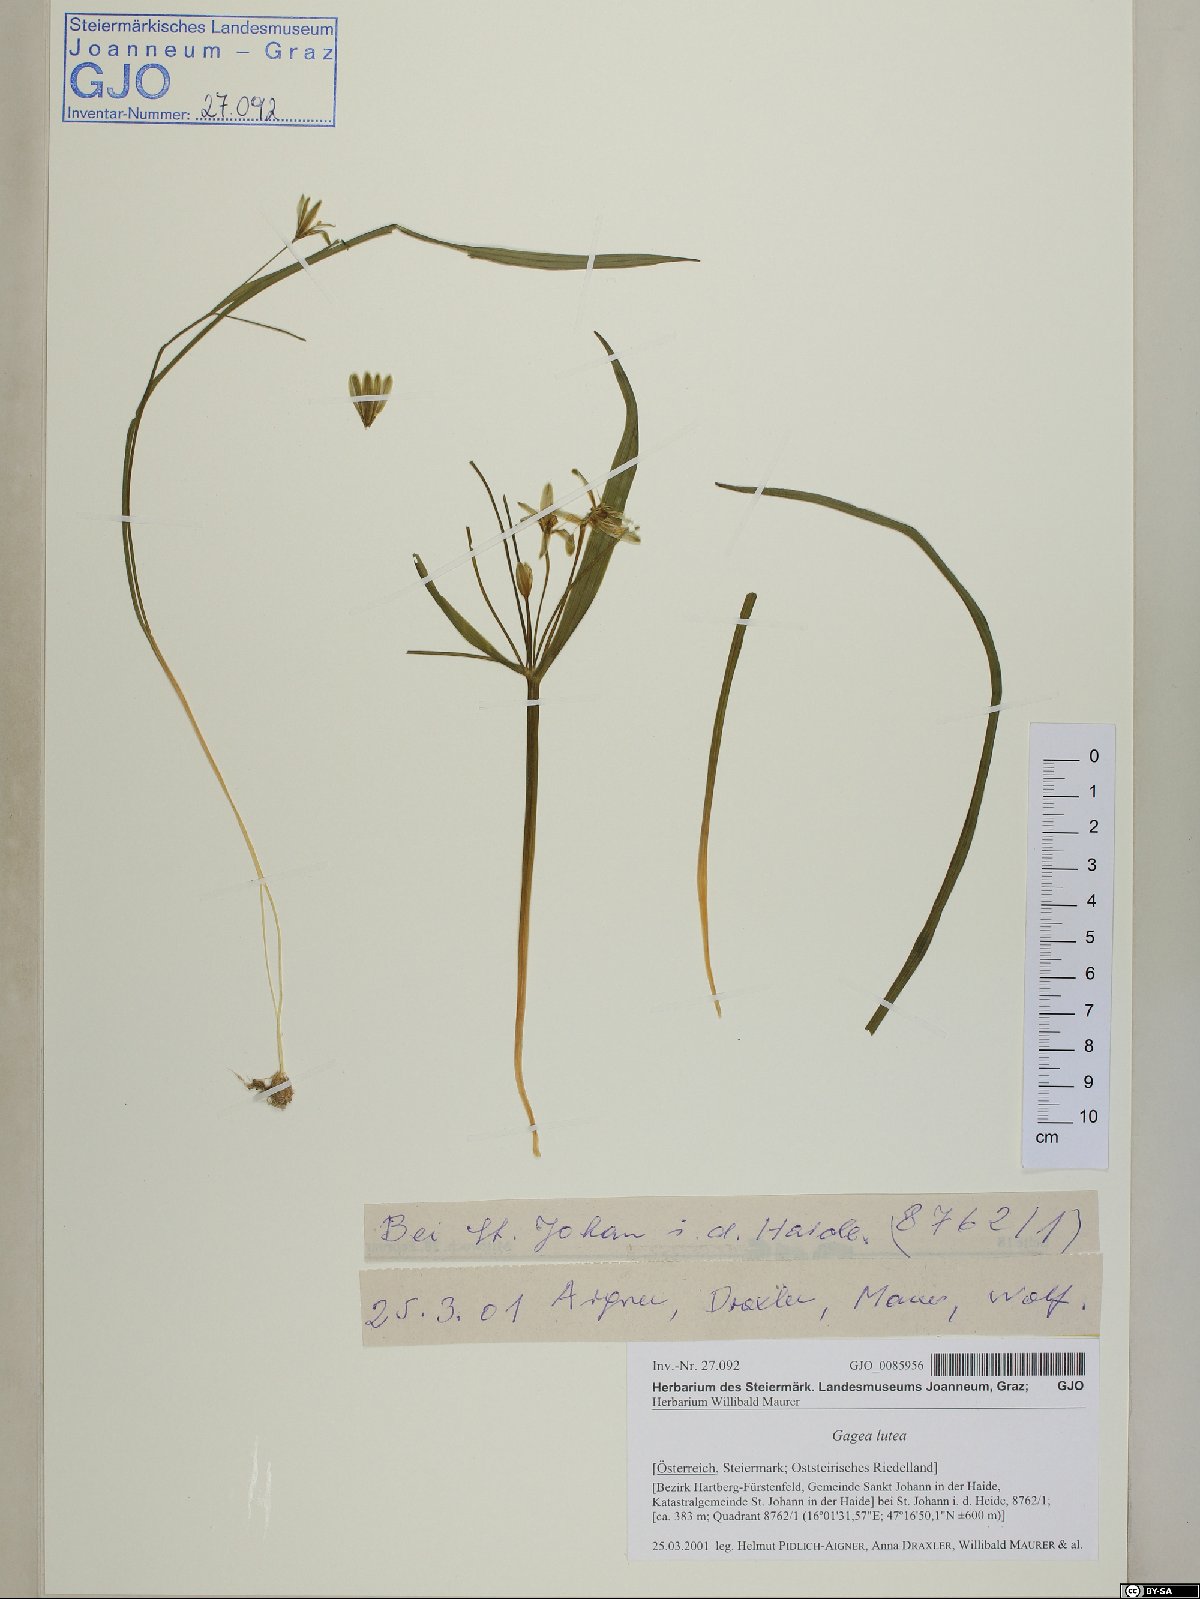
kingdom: Plantae
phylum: Tracheophyta
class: Liliopsida
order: Liliales
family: Liliaceae
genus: Gagea
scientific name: Gagea lutea
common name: Yellow star-of-bethlehem
